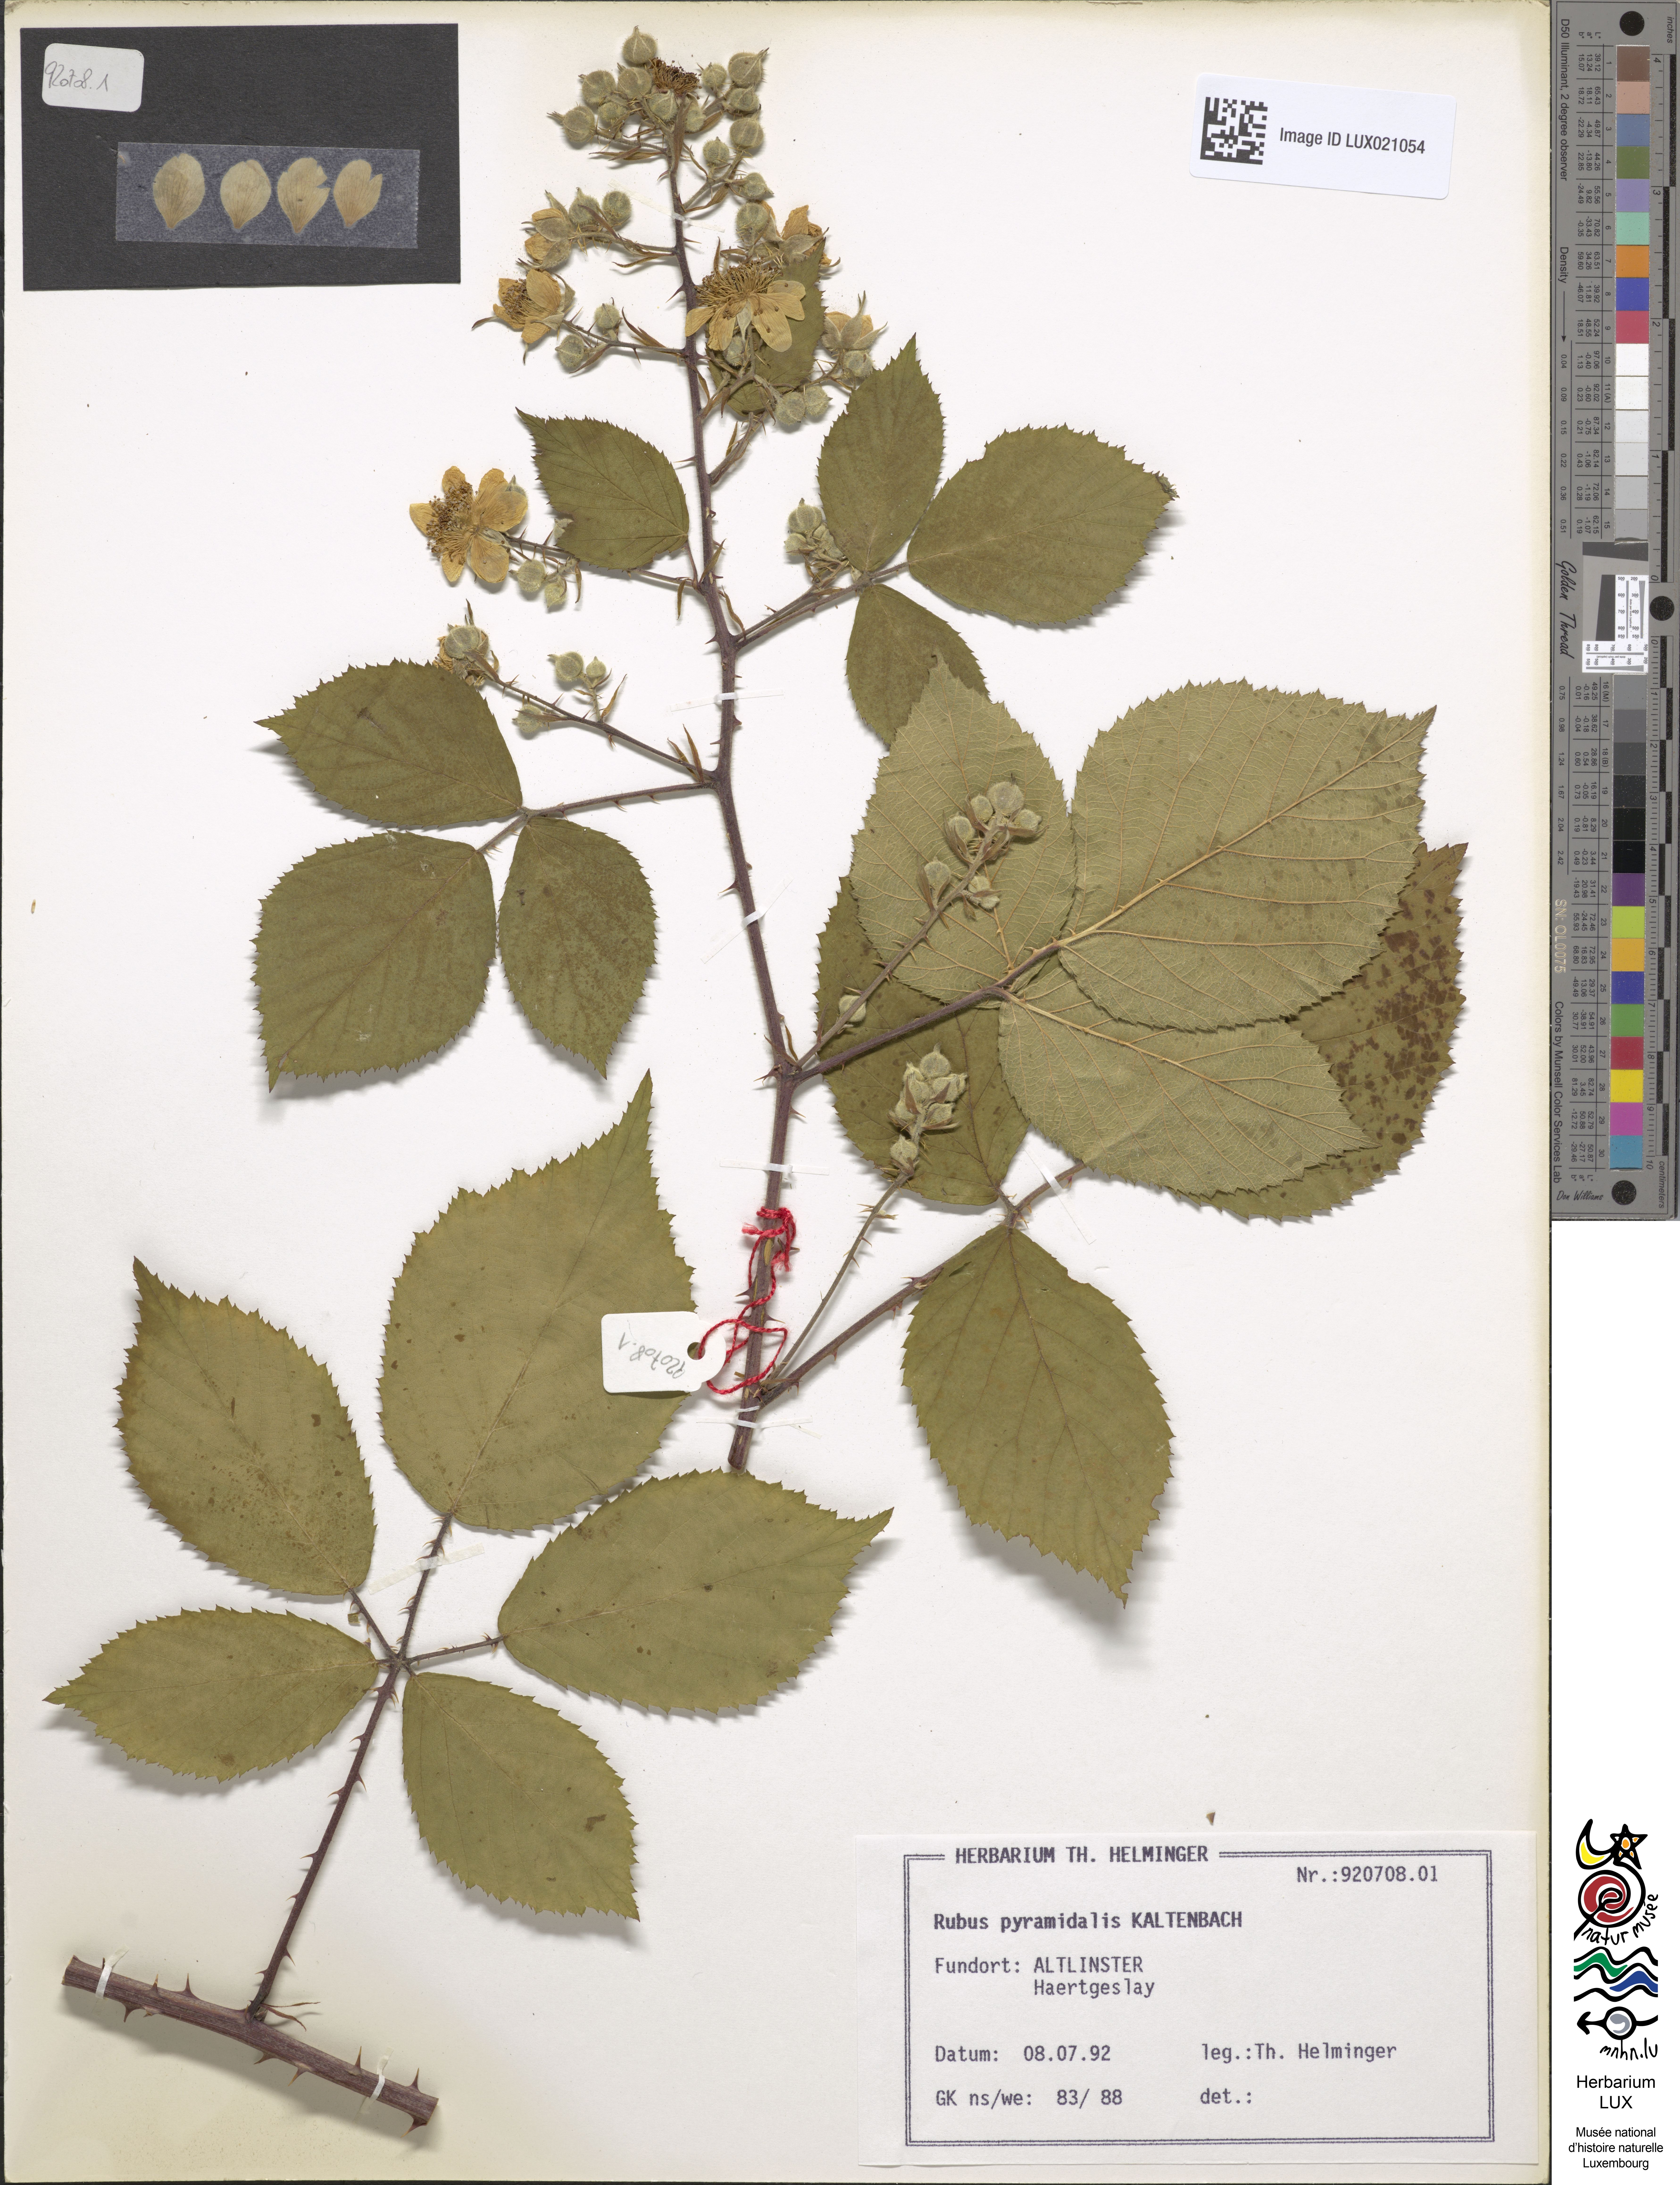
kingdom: Plantae
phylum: Tracheophyta
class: Magnoliopsida
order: Rosales
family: Rosaceae
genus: Rubus
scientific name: Rubus umbrosus
